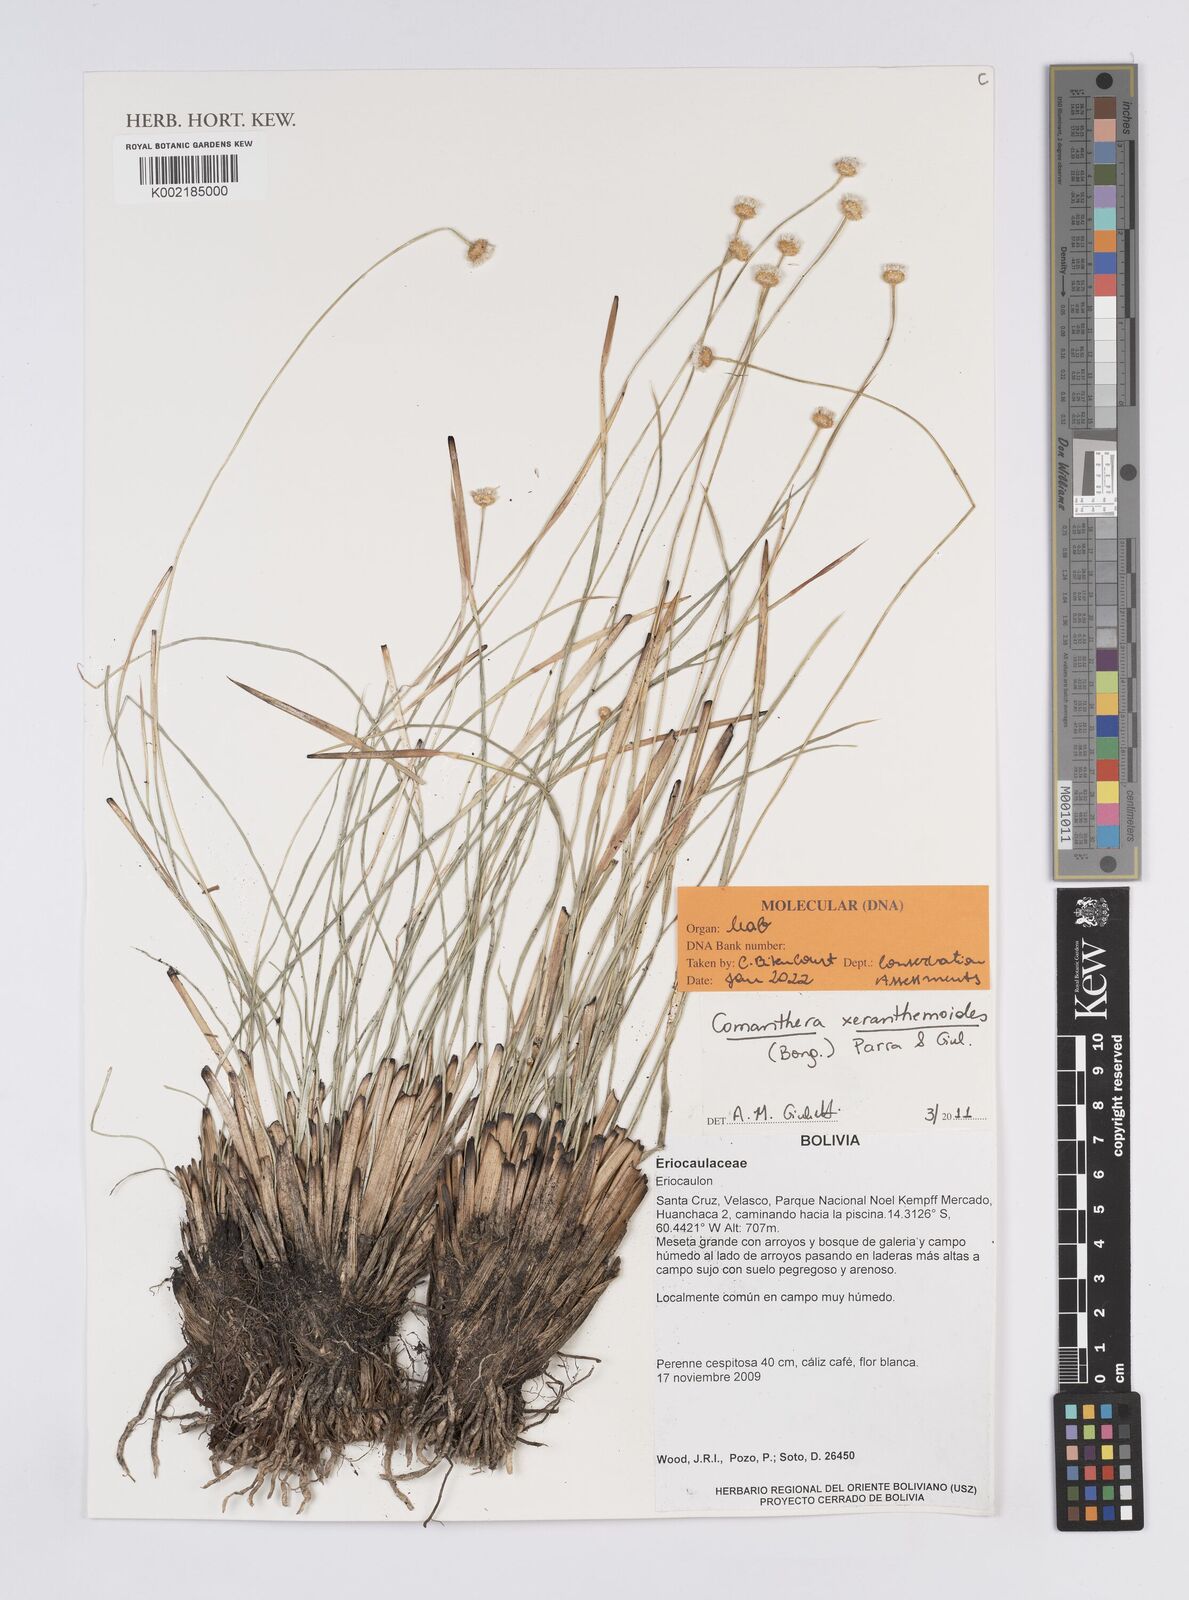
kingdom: Plantae
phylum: Tracheophyta
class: Liliopsida
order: Poales
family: Eriocaulaceae
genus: Comanthera
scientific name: Comanthera xeranthemoides
